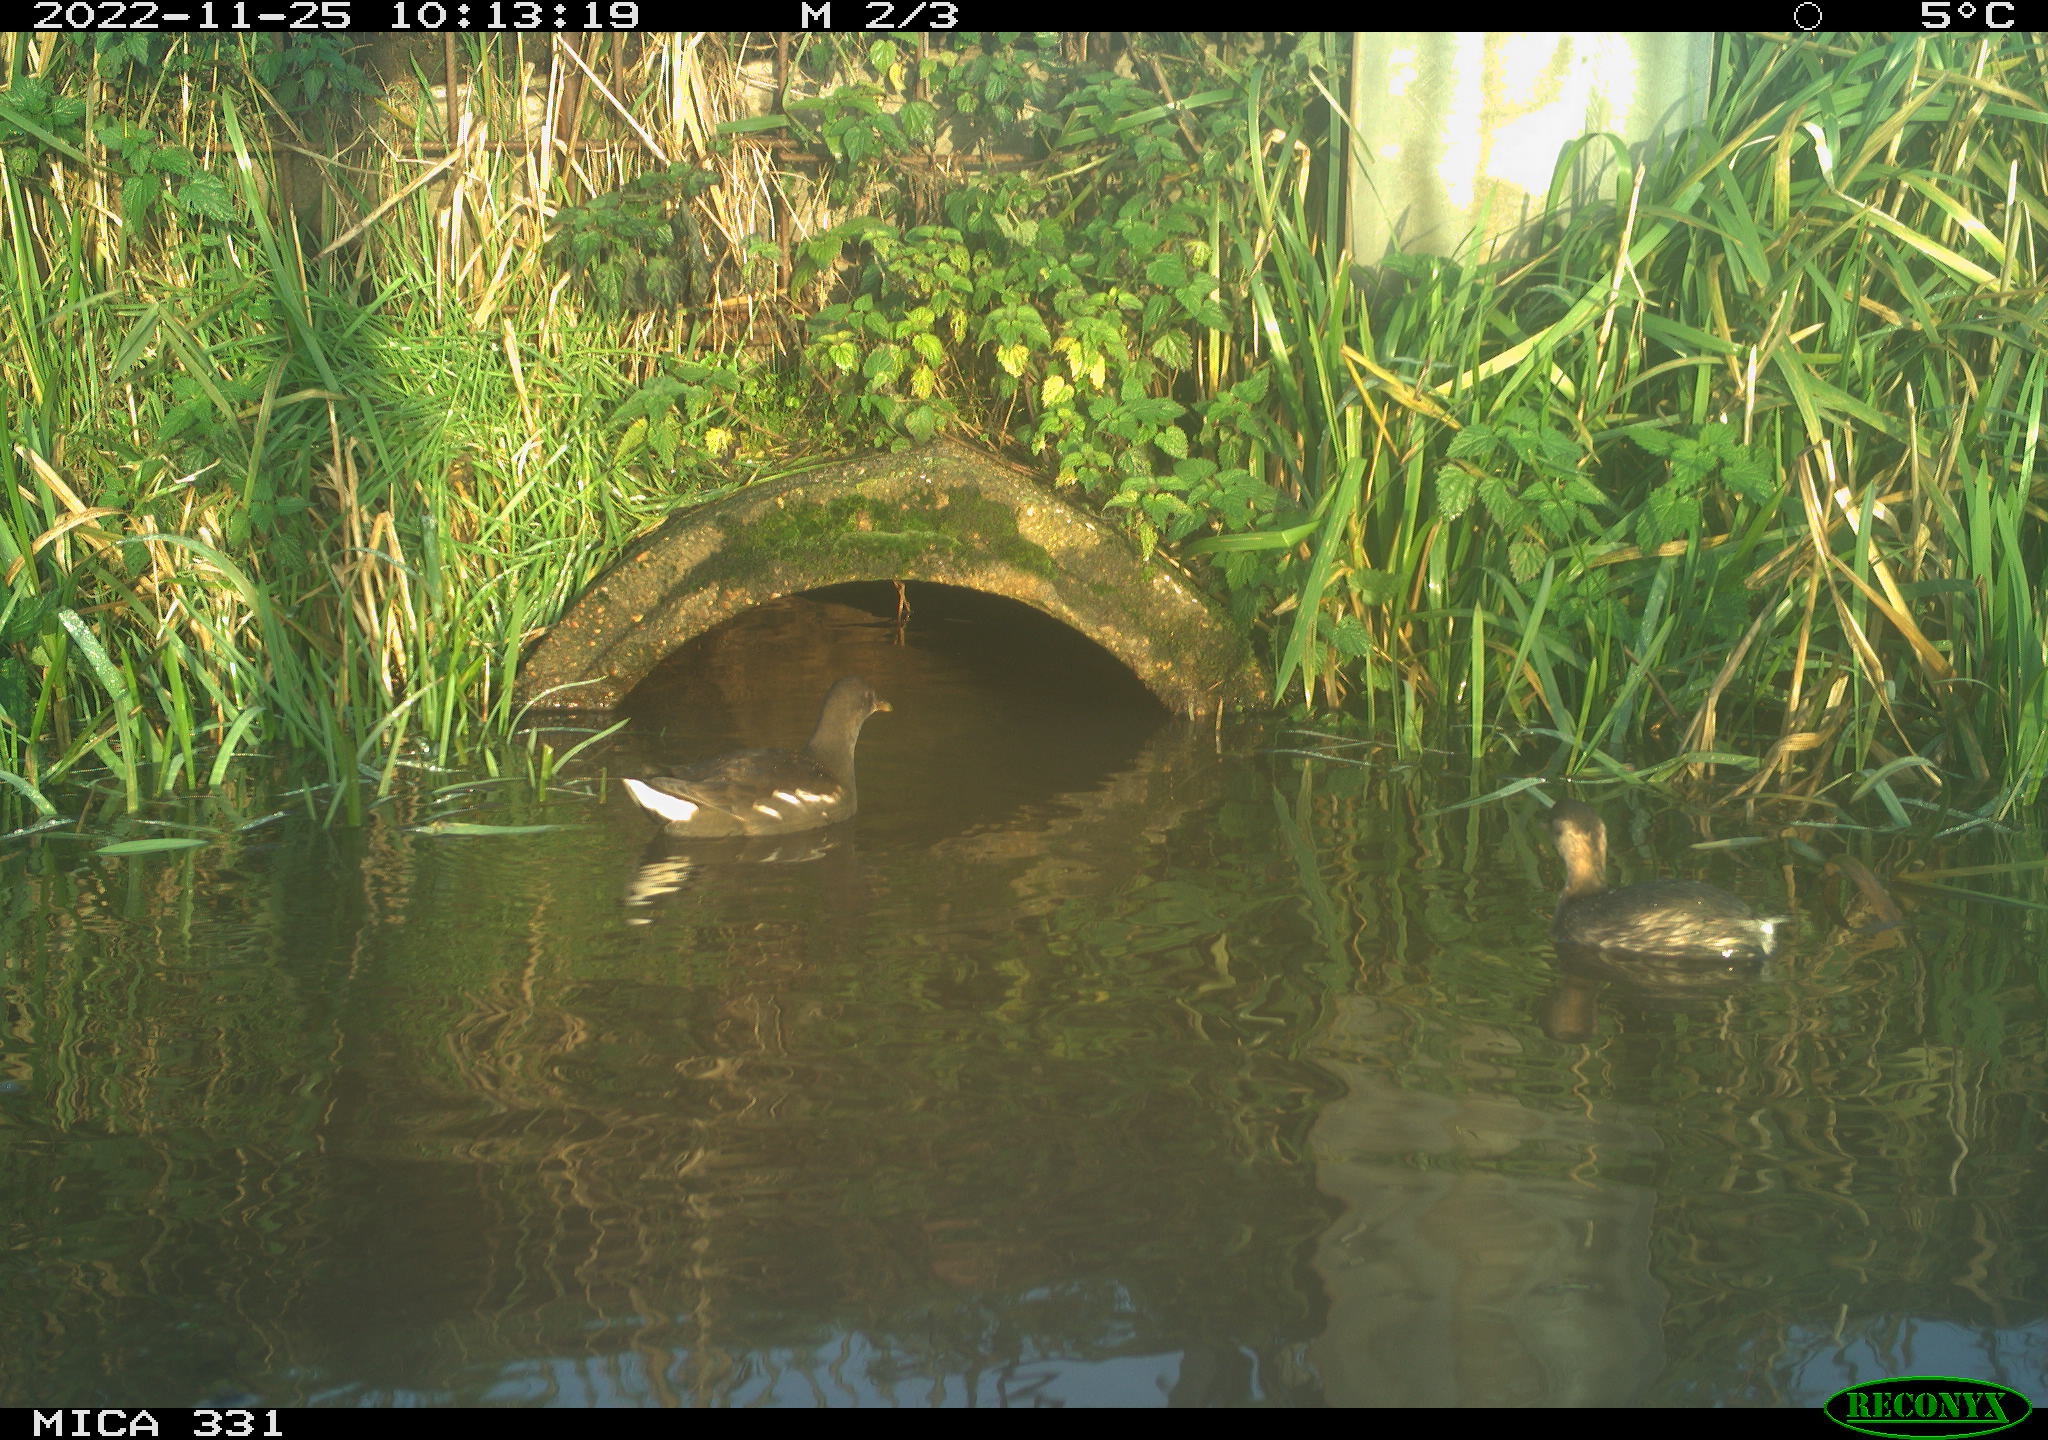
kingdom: Animalia
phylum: Chordata
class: Aves
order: Podicipediformes
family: Podicipedidae
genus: Tachybaptus
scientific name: Tachybaptus ruficollis
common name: Little grebe
